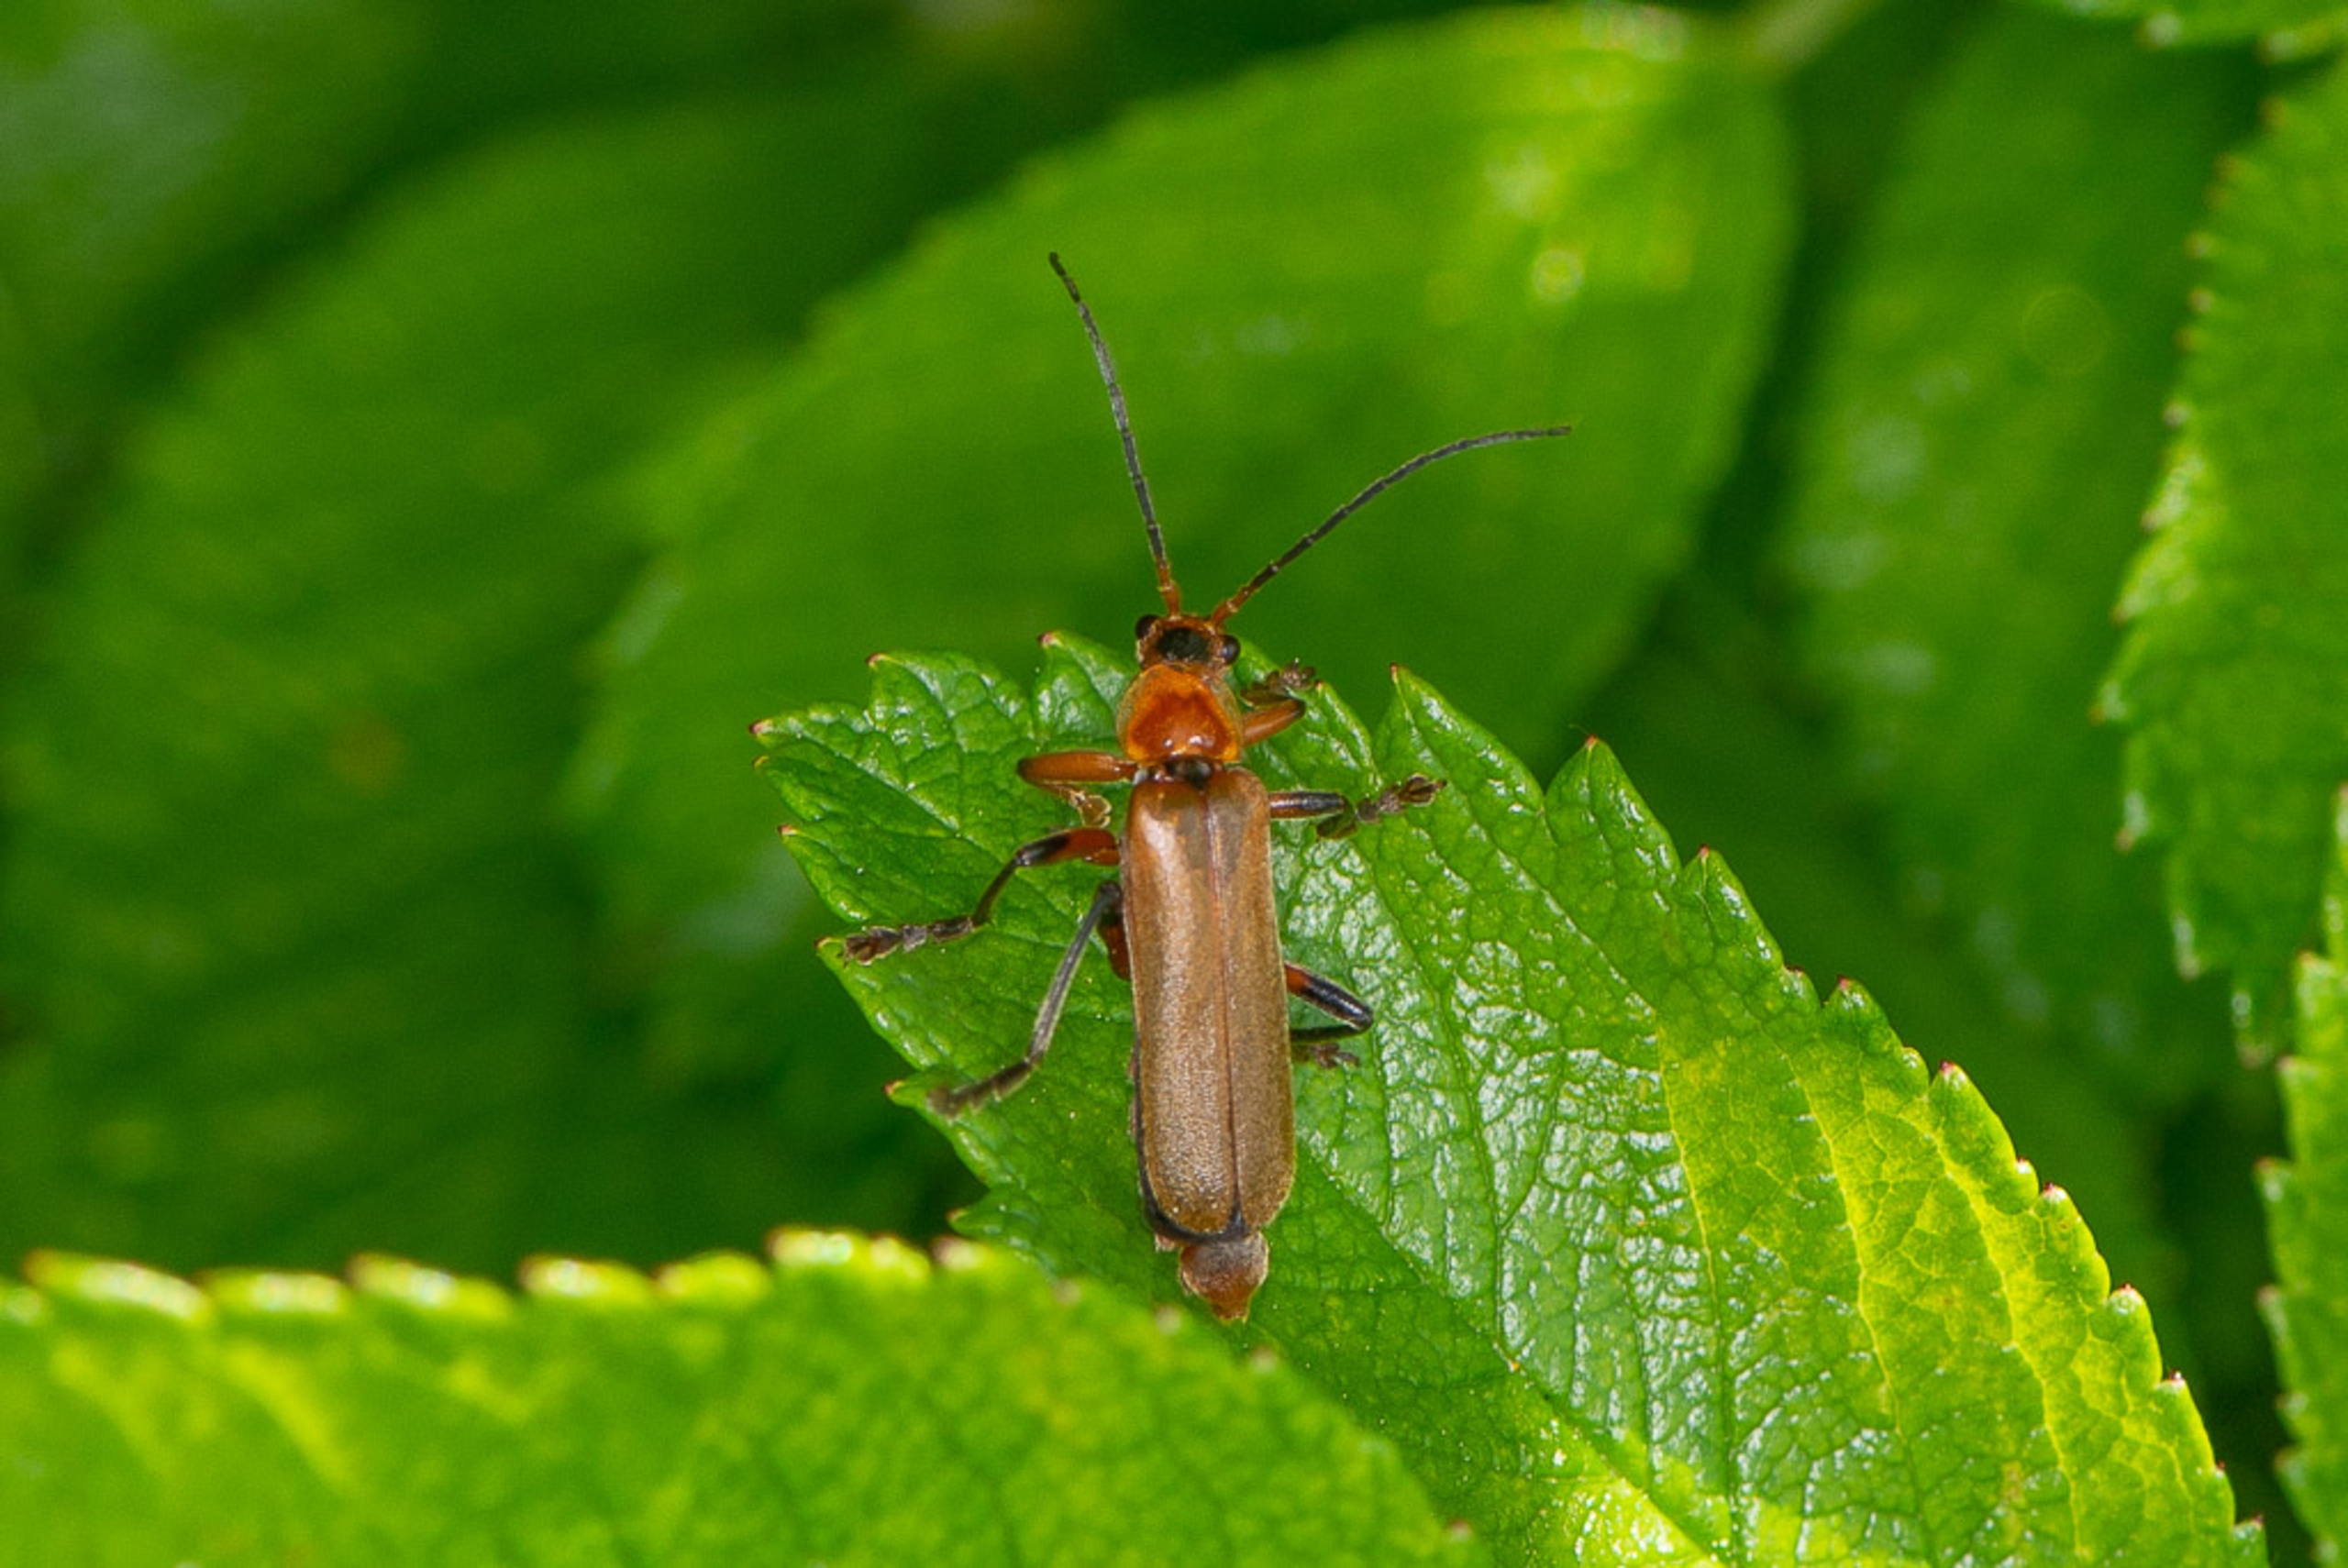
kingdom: Animalia
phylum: Arthropoda
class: Insecta
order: Coleoptera
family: Cantharidae
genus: Cantharis
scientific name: Cantharis livida
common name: Gul blødvinge
